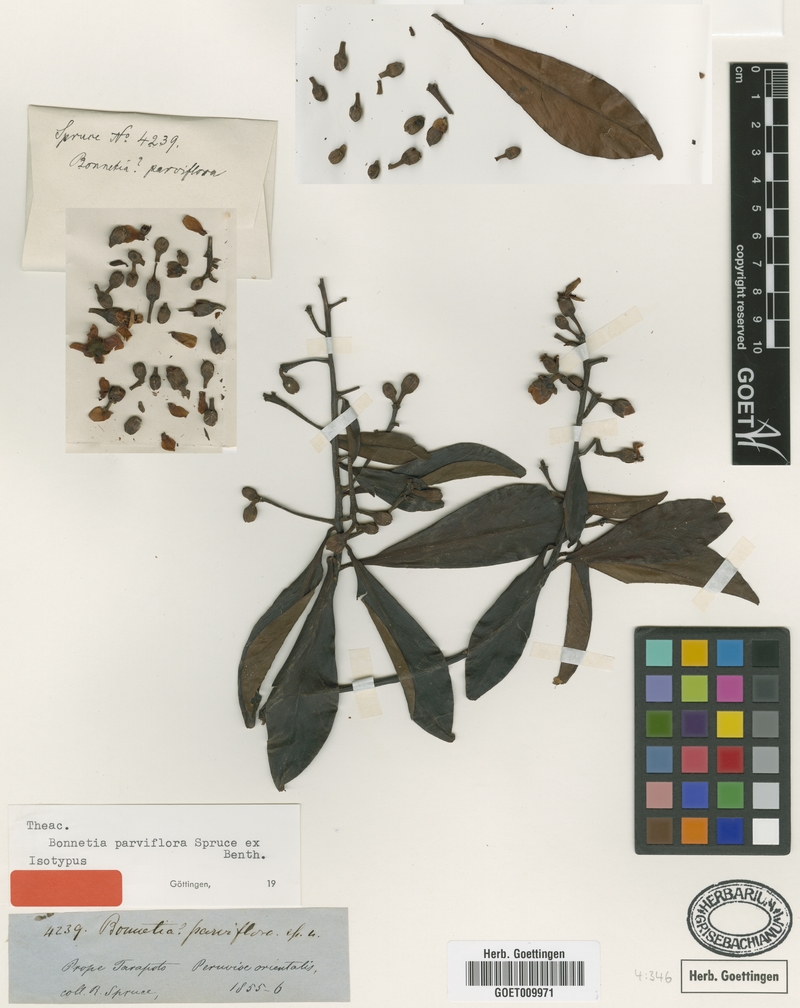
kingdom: Plantae
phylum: Tracheophyta
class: Magnoliopsida
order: Malpighiales
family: Bonnetiaceae
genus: Bonnetia
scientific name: Bonnetia paniculata
